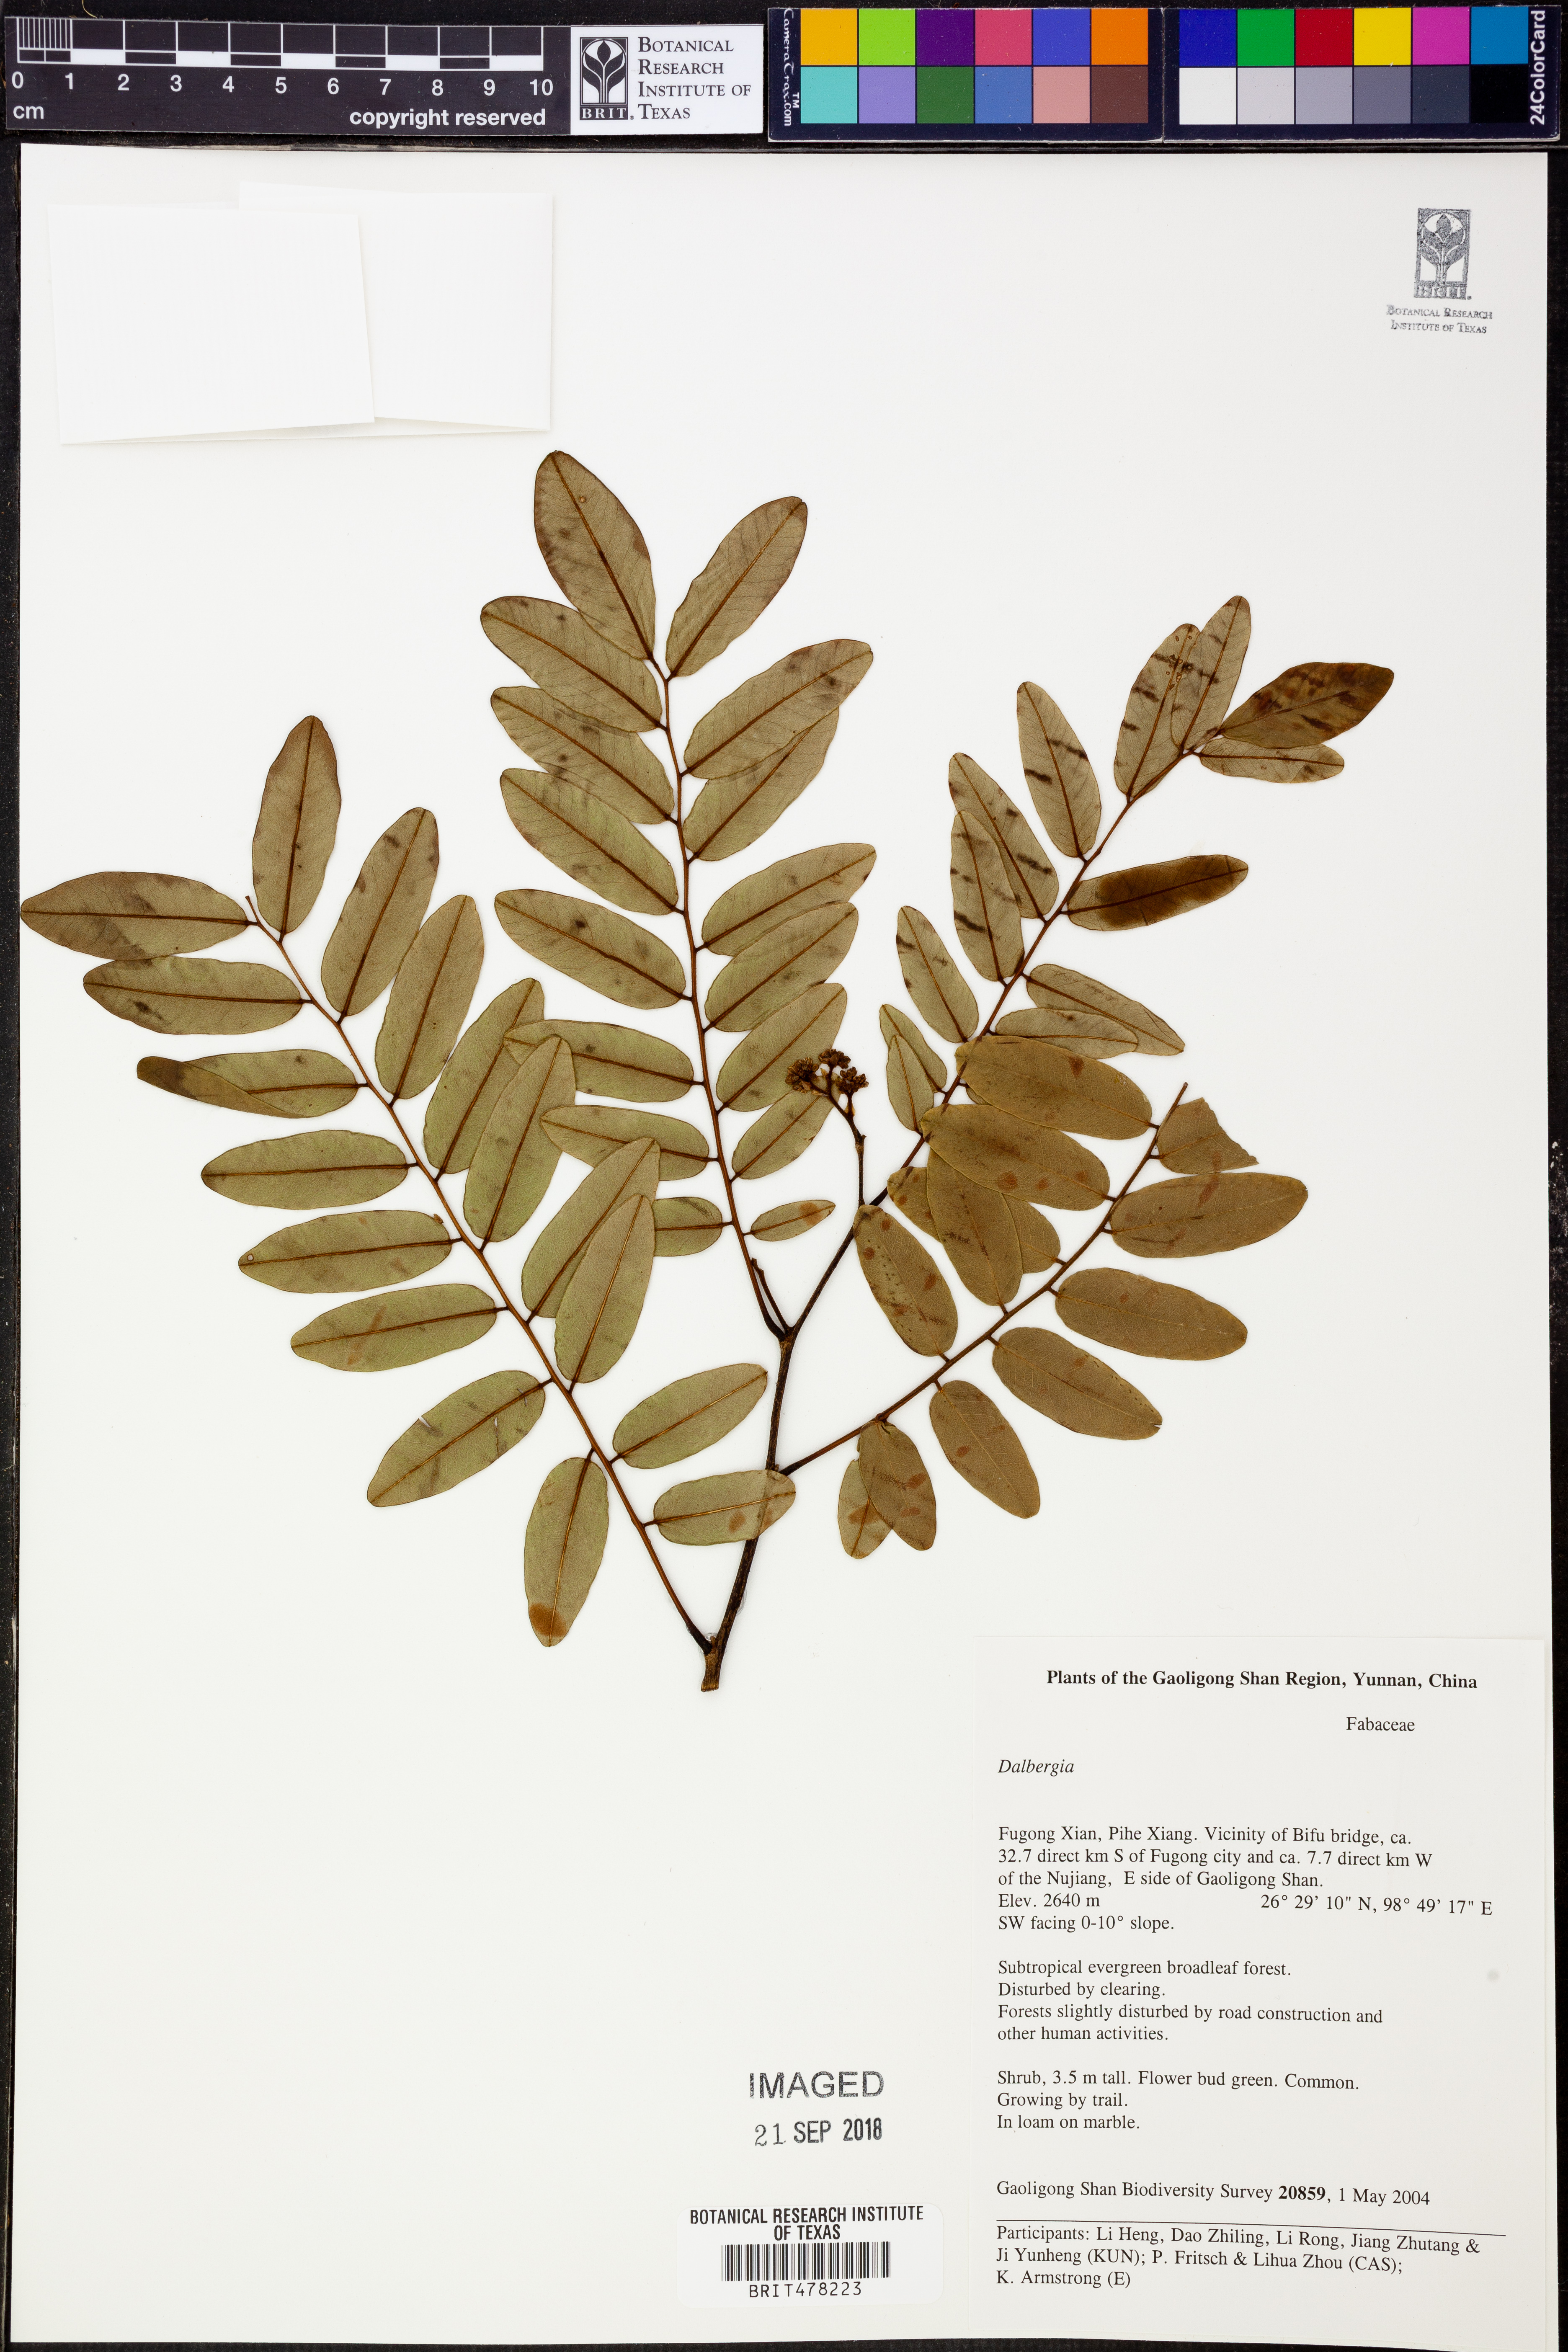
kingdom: Plantae
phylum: Tracheophyta
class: Magnoliopsida
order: Fabales
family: Fabaceae
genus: Dalbergia
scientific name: Dalbergia
